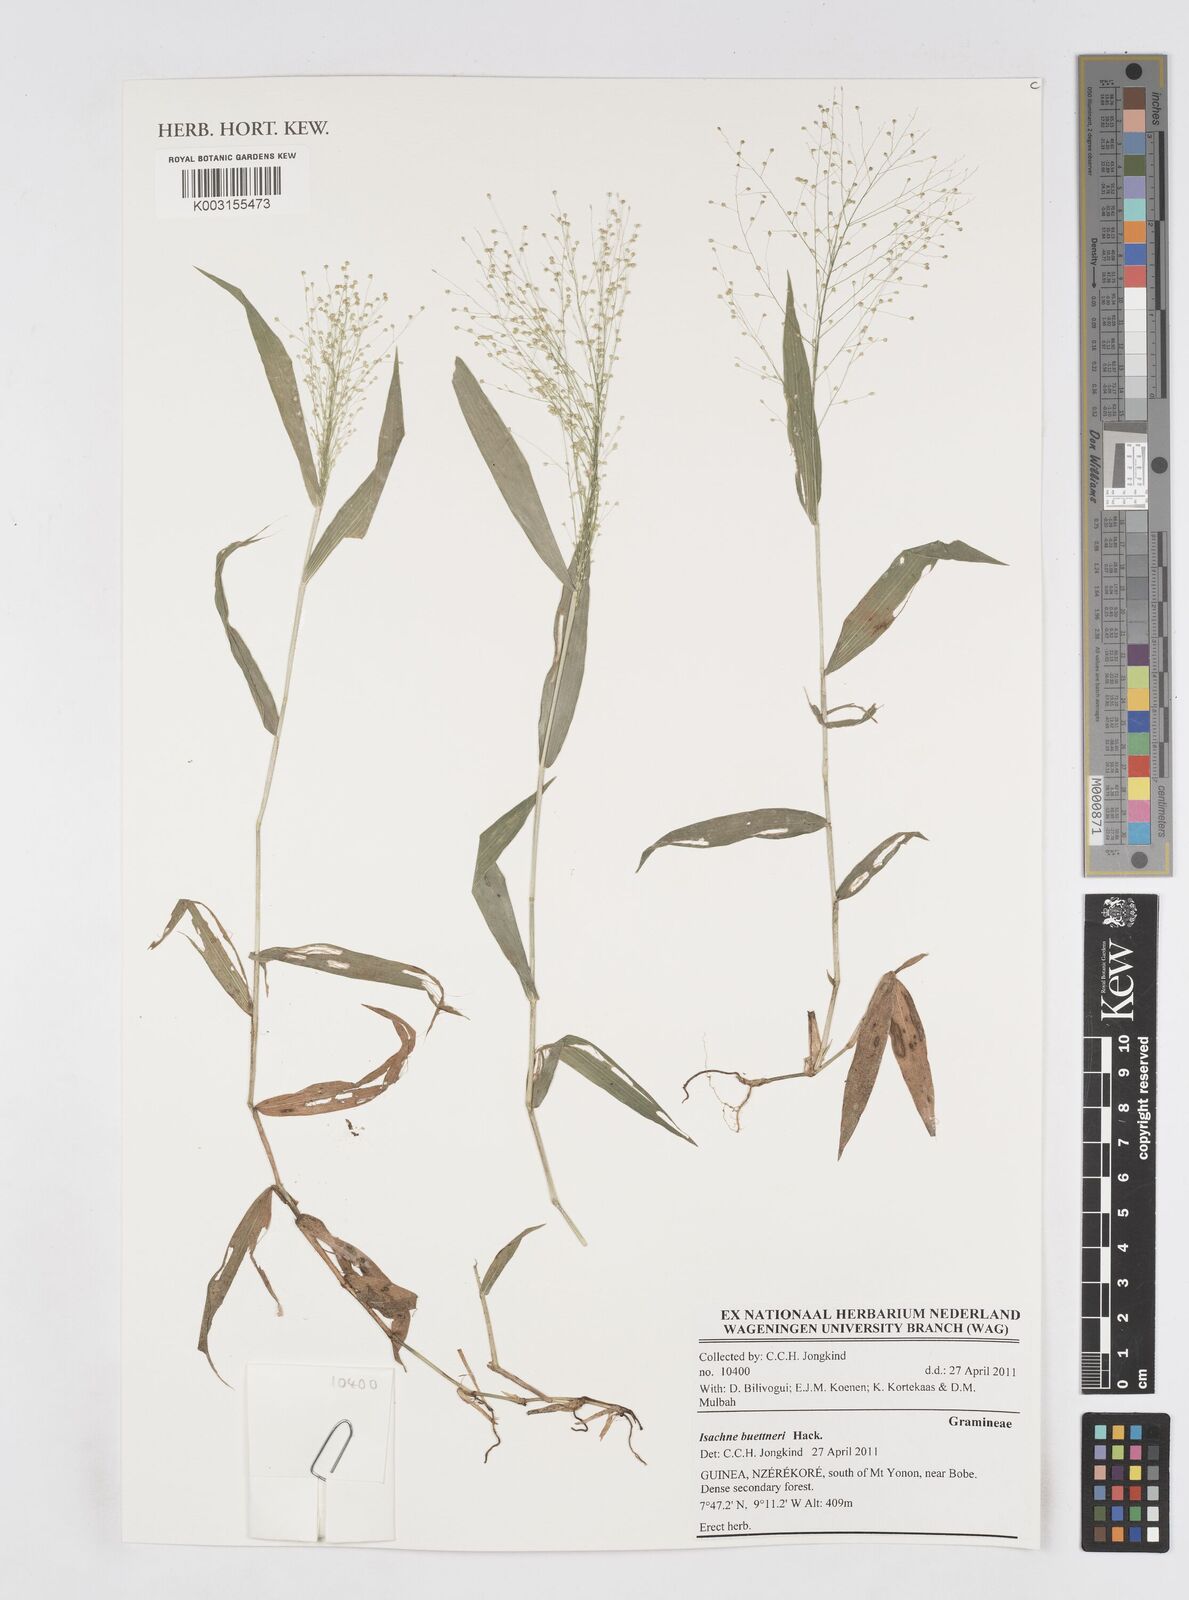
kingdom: Plantae
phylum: Tracheophyta
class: Liliopsida
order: Poales
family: Poaceae
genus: Isachne
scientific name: Isachne albens
